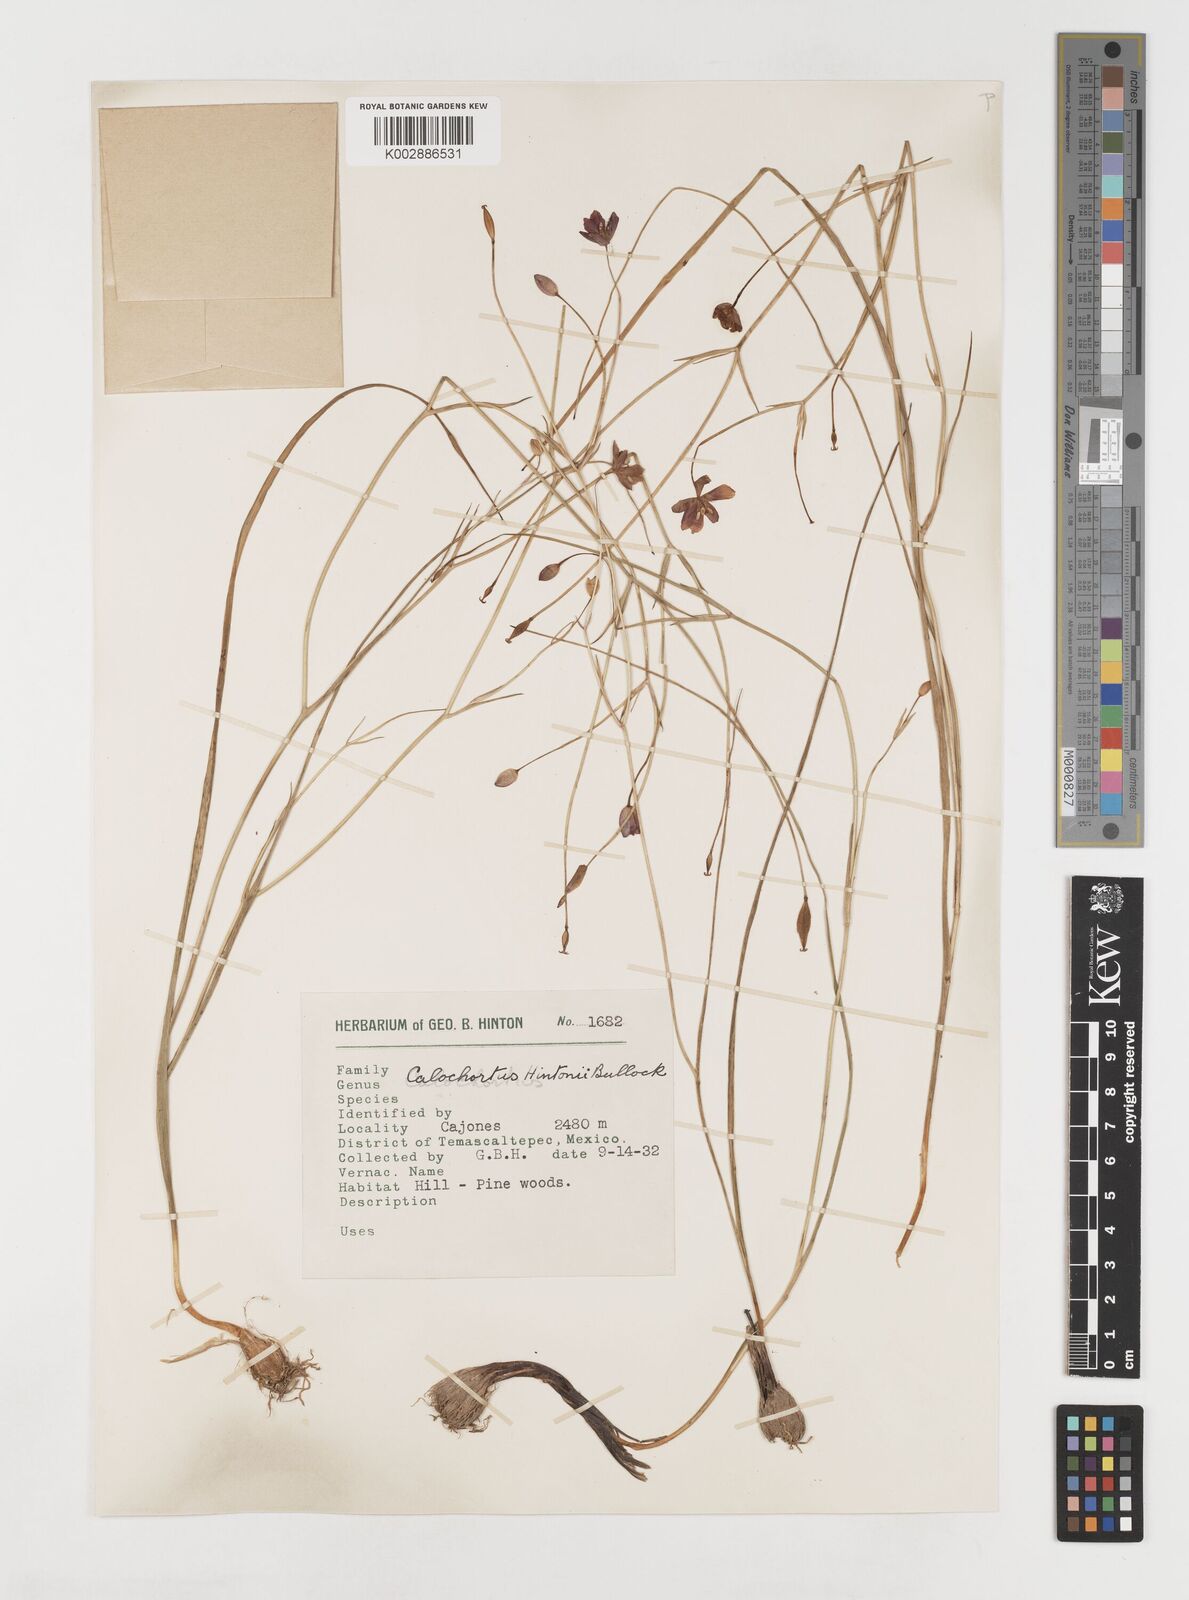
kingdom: Plantae
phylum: Tracheophyta
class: Liliopsida
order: Liliales
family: Liliaceae
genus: Calochortus
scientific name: Calochortus fuscus
